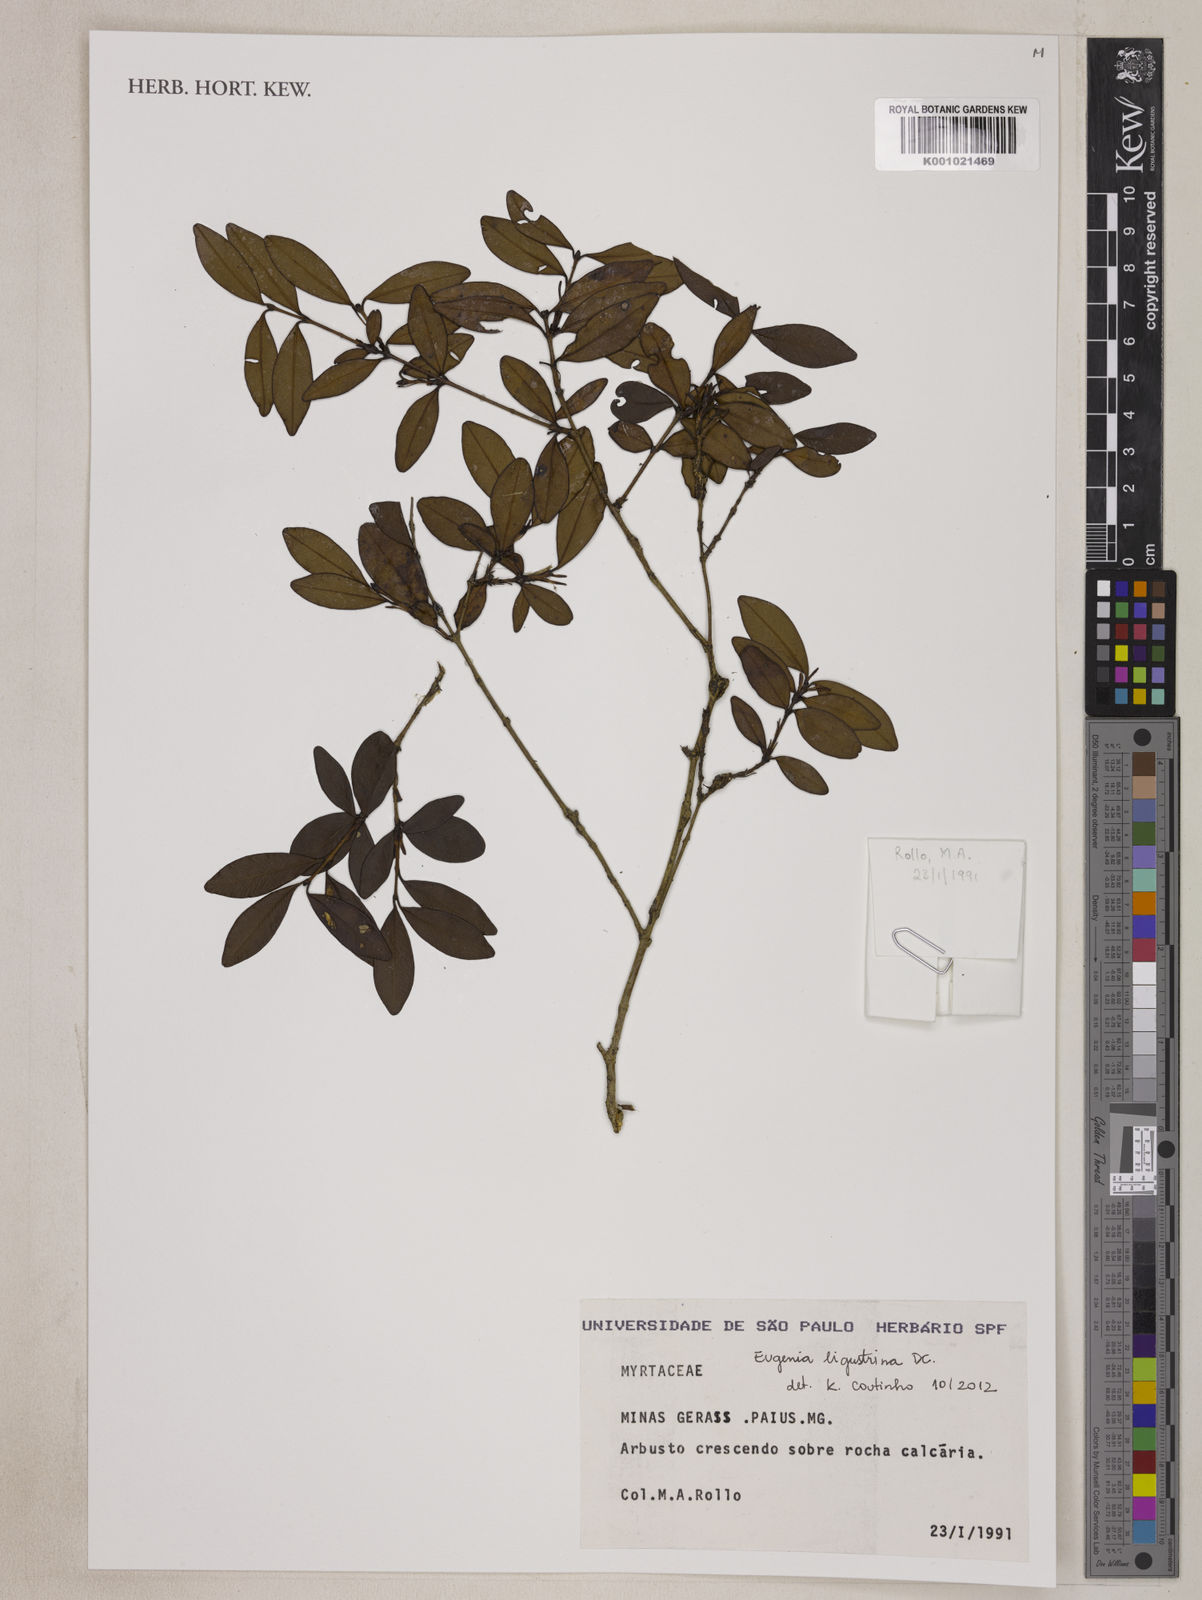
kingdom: Plantae
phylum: Tracheophyta
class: Magnoliopsida
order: Myrtales
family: Myrtaceae
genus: Eugenia
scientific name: Eugenia ligustrina
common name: Privet stopper
